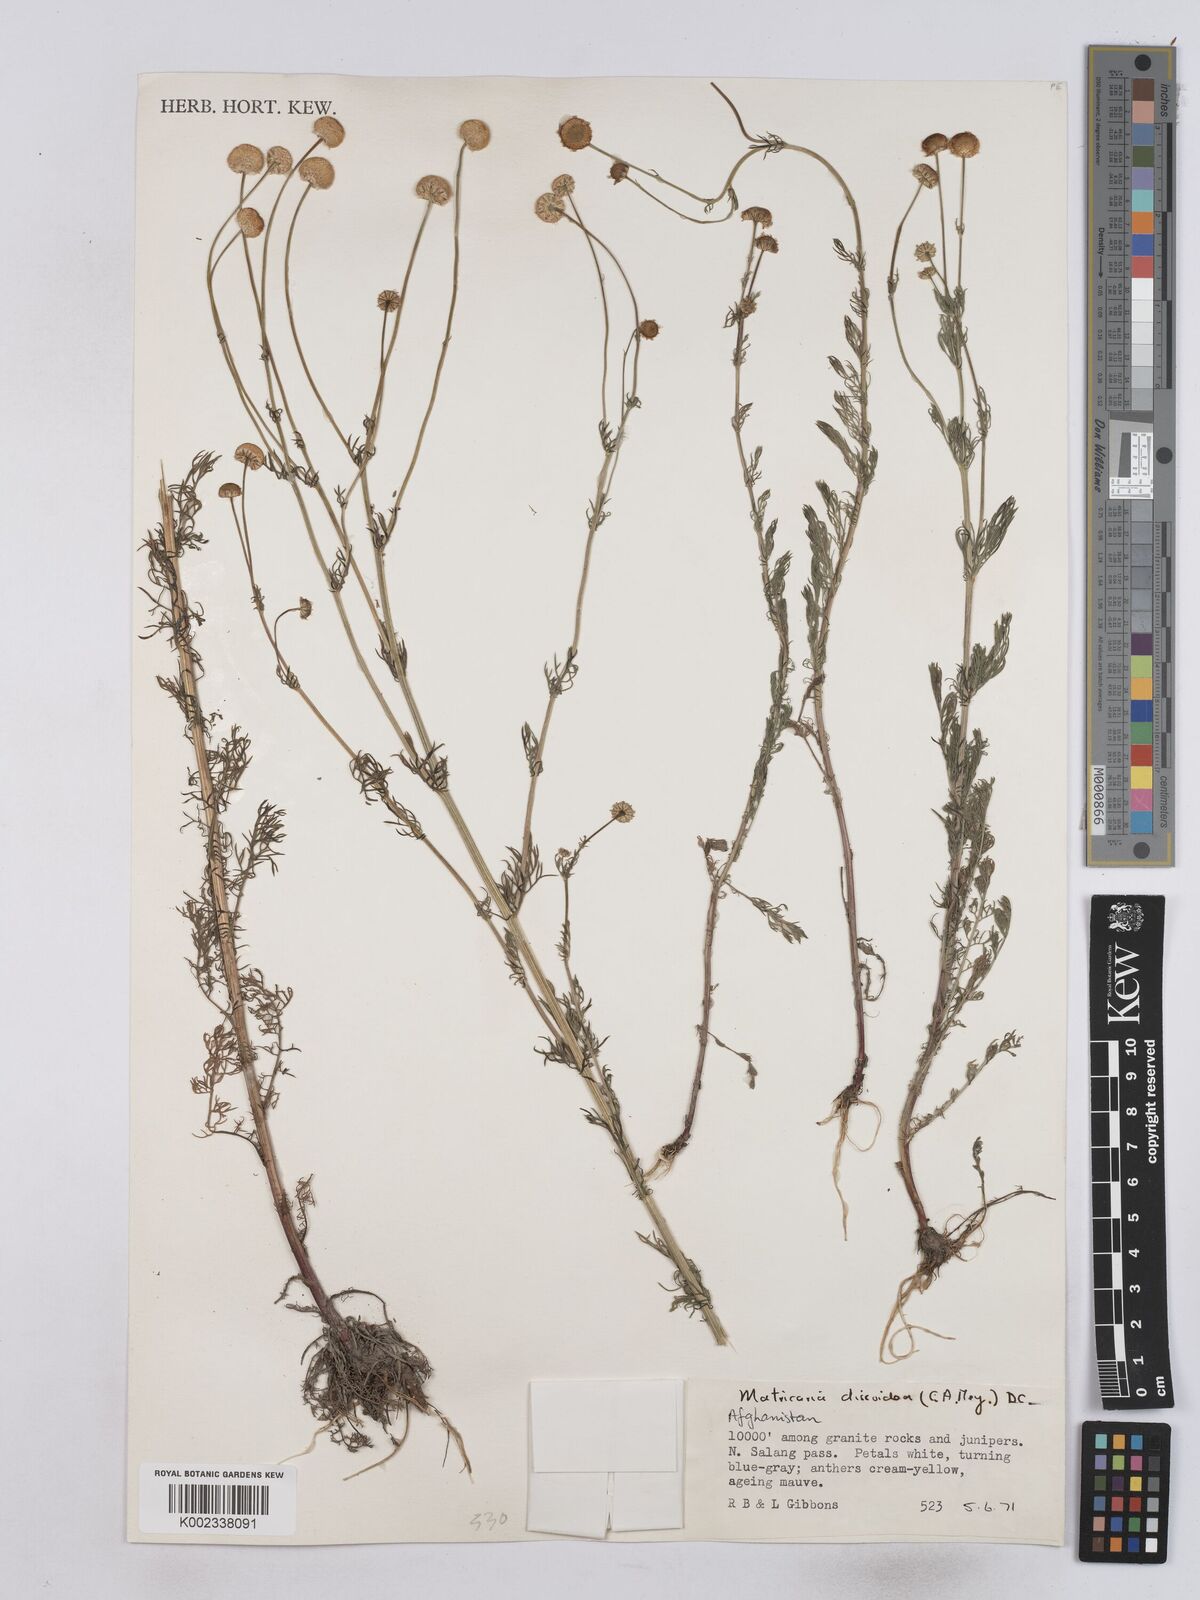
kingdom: Plantae
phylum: Tracheophyta
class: Magnoliopsida
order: Asterales
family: Asteraceae
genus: Matricaria
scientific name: Matricaria discoidea
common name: Disc mayweed
